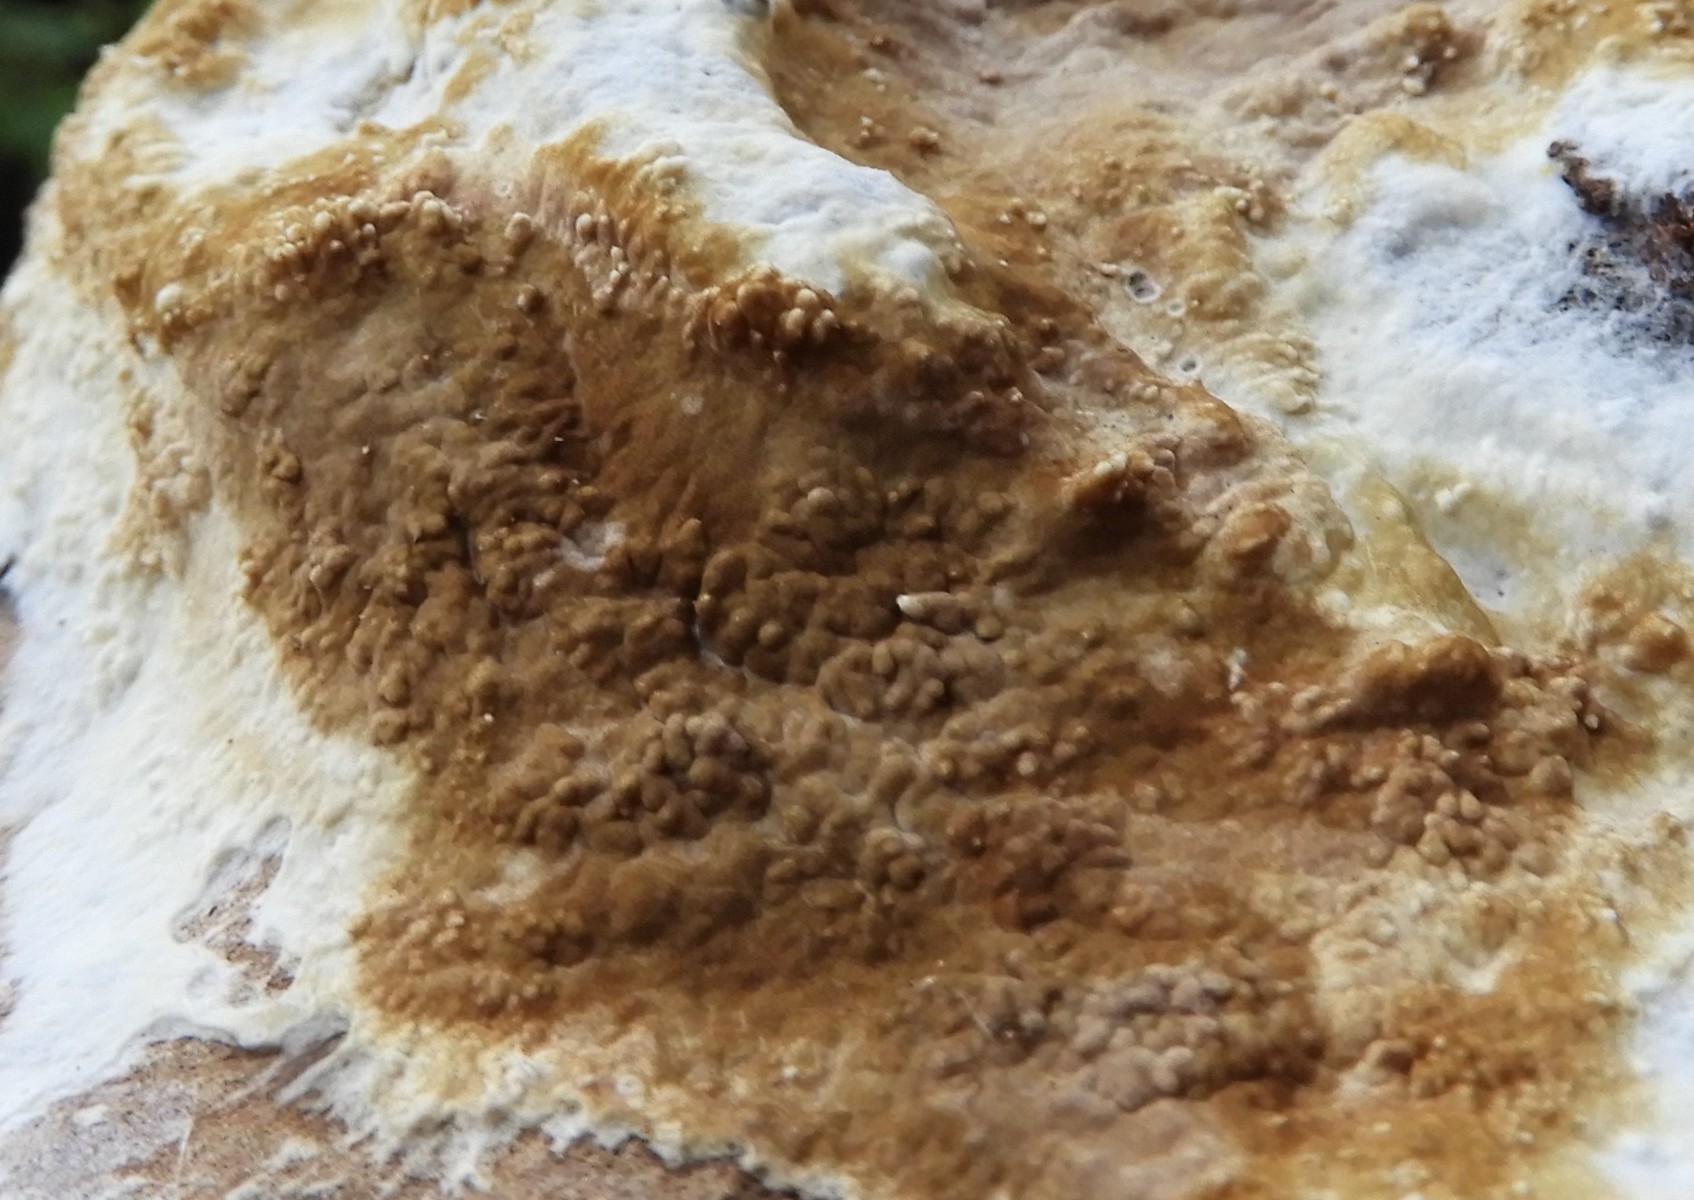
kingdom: Fungi
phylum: Basidiomycota
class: Agaricomycetes
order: Boletales
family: Coniophoraceae
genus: Coniophora
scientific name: Coniophora puteana
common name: gul tømmersvamp
